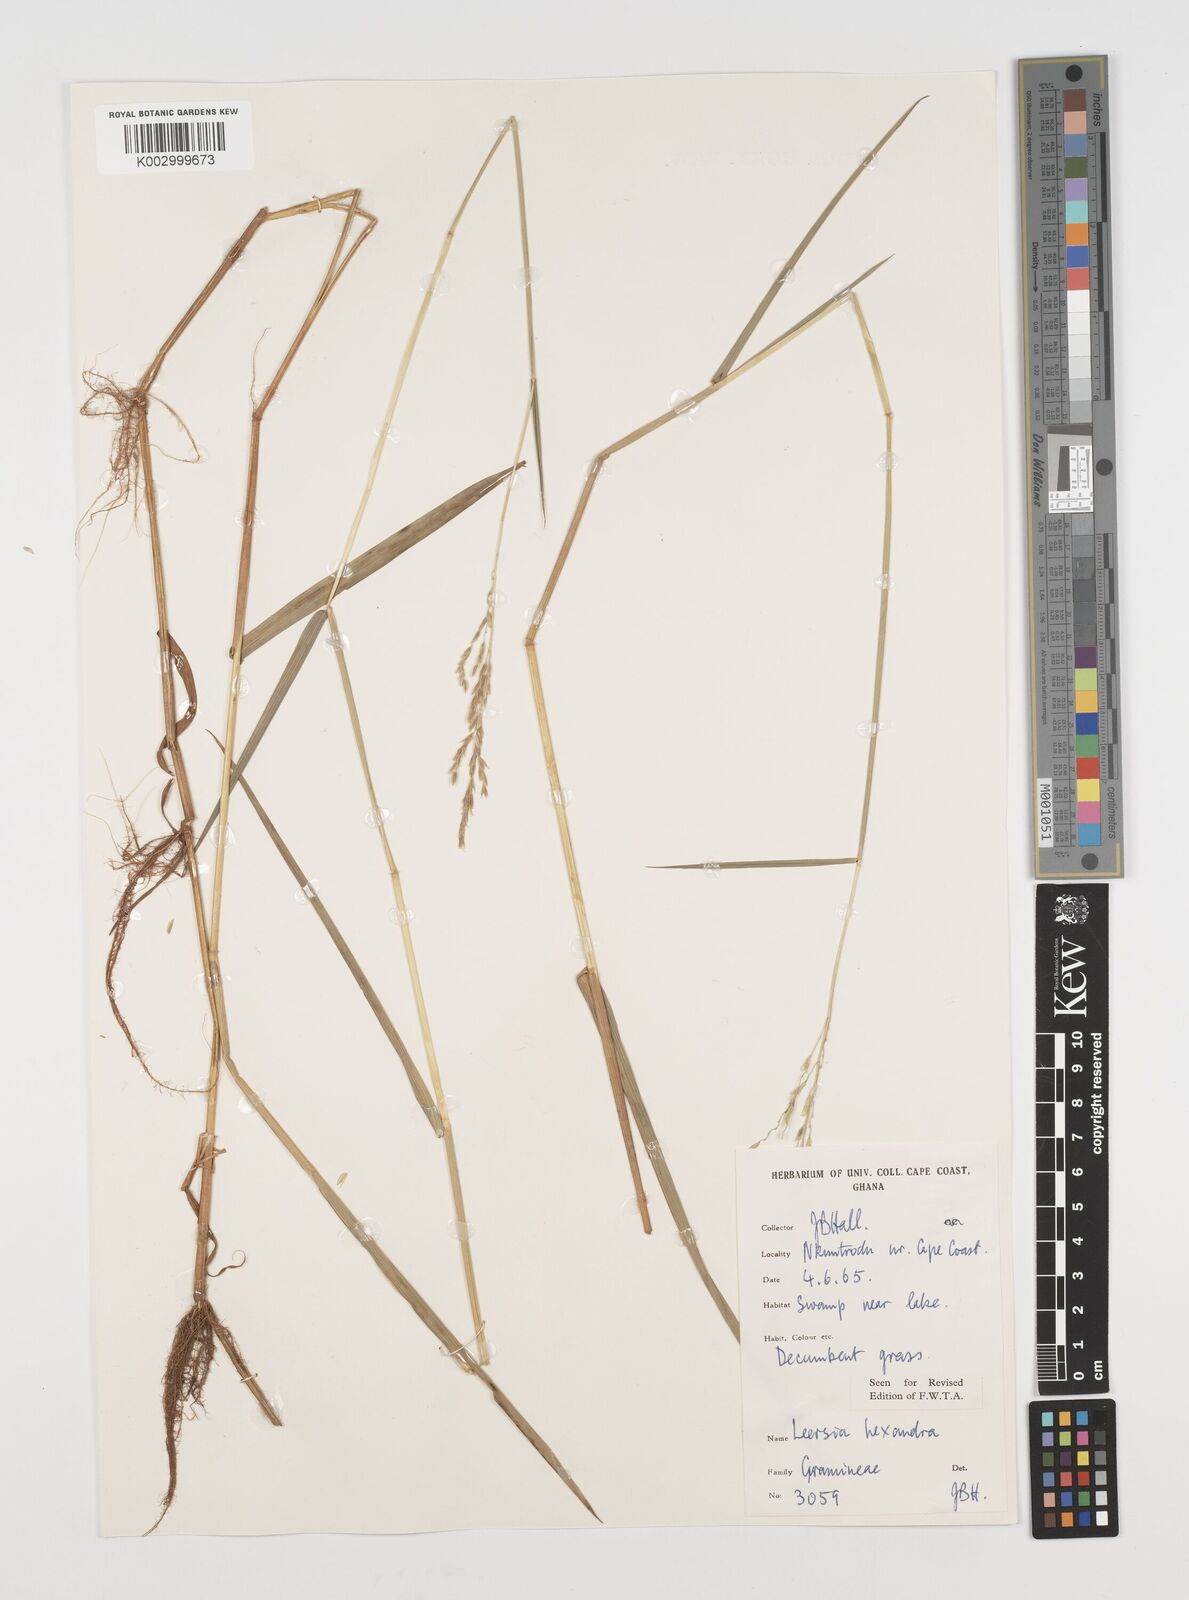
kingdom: Plantae
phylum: Tracheophyta
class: Liliopsida
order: Poales
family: Poaceae
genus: Leersia
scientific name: Leersia hexandra
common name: Southern cut grass
